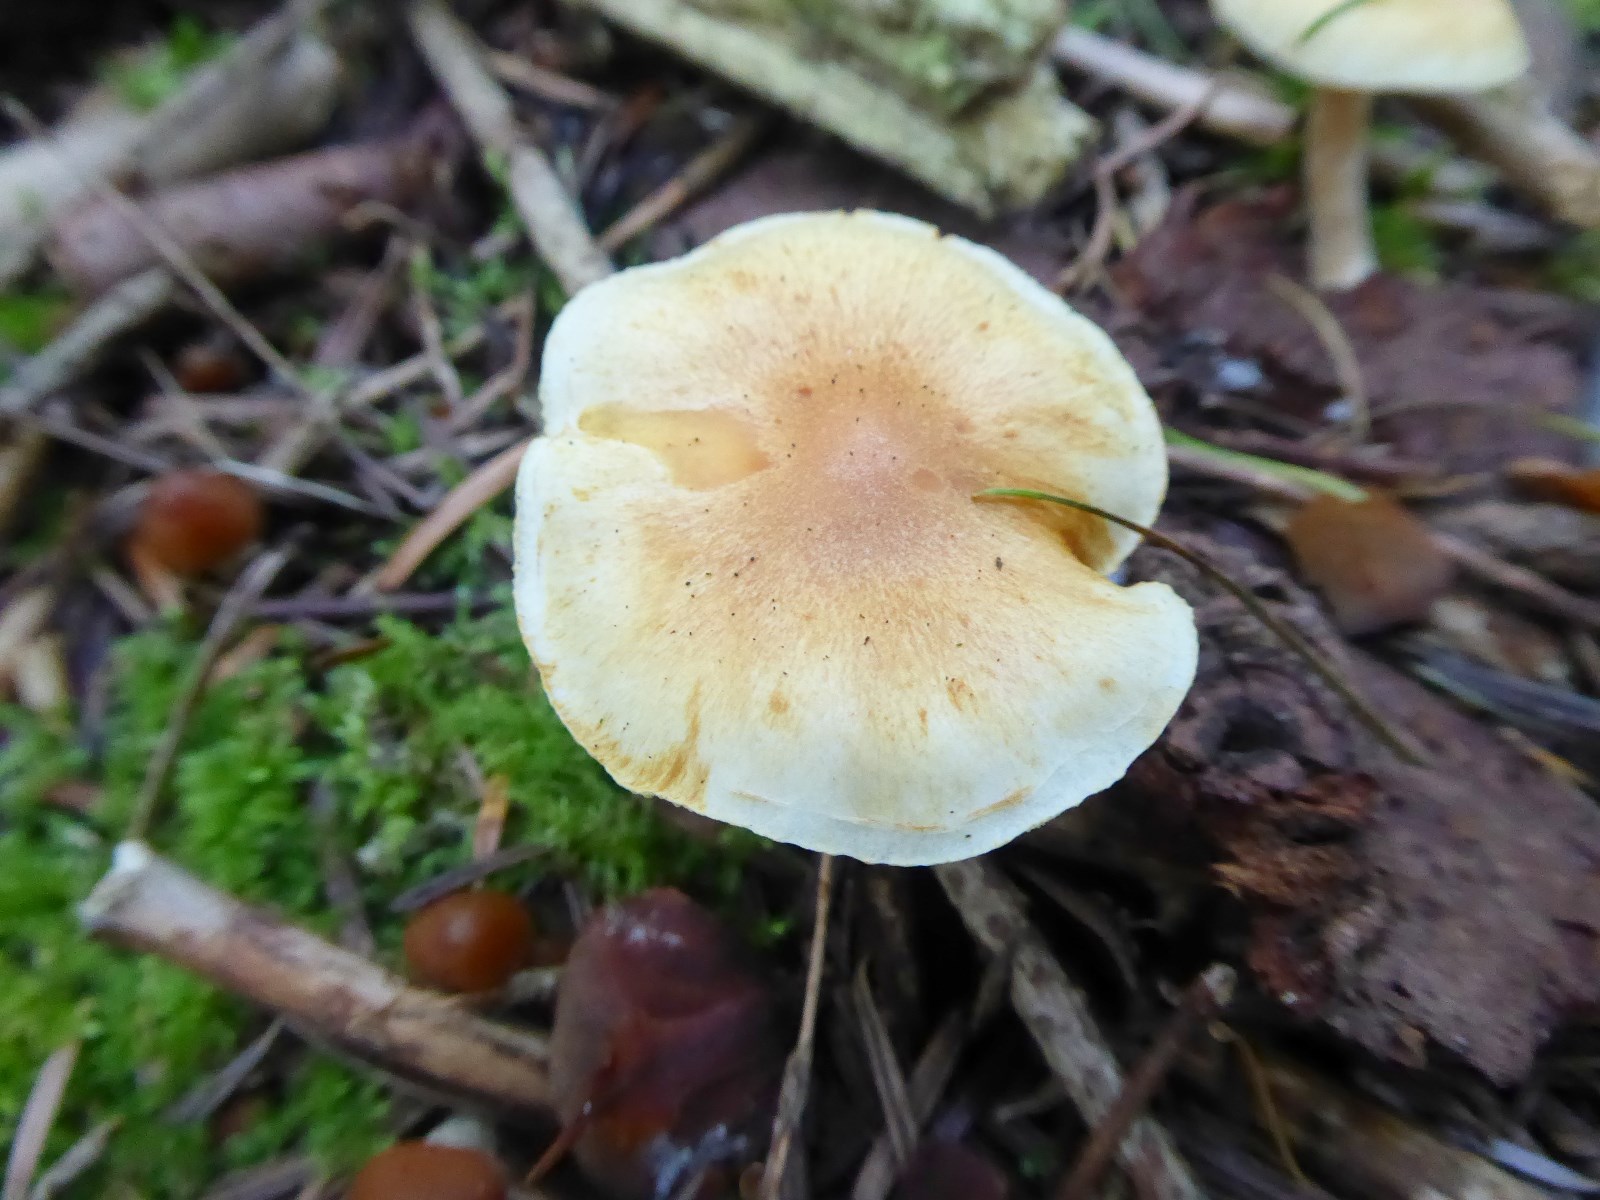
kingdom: Fungi
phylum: Basidiomycota
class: Agaricomycetes
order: Agaricales
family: Hymenogastraceae
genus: Gymnopilus
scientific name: Gymnopilus penetrans
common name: plettet flammehat
